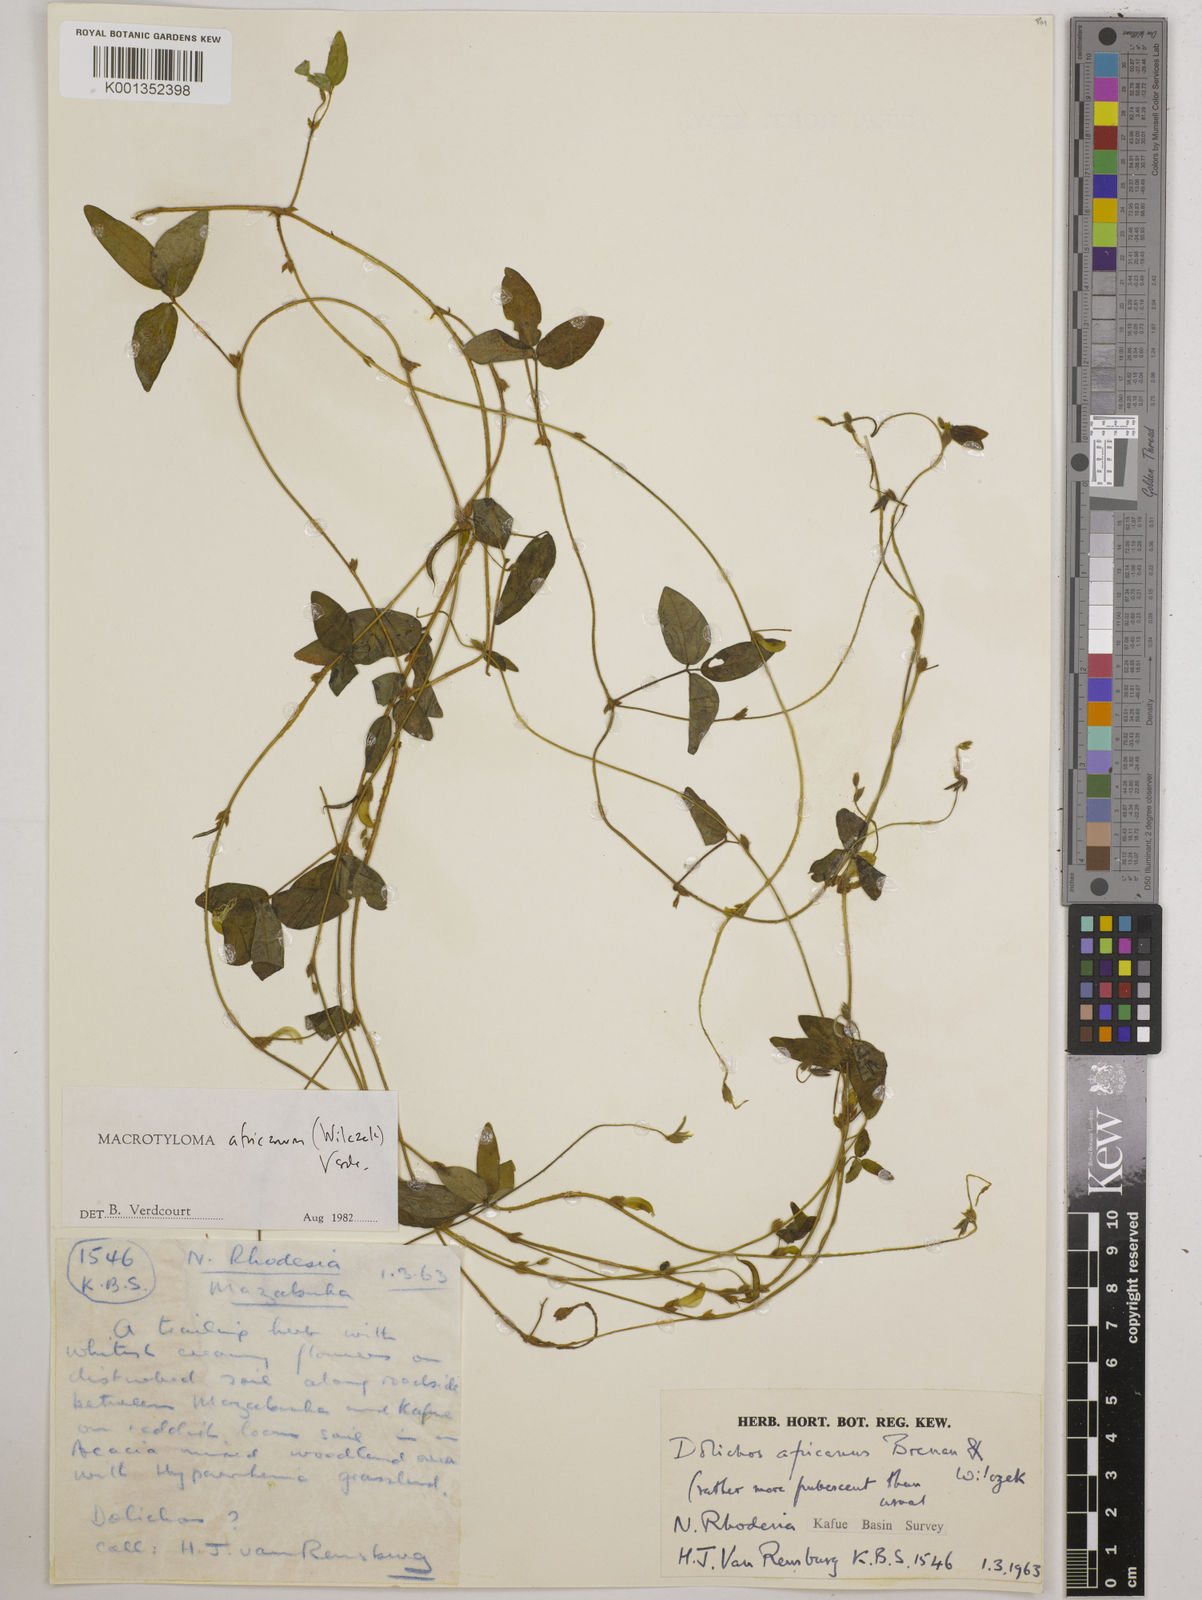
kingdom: Plantae
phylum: Tracheophyta
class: Magnoliopsida
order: Fabales
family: Fabaceae
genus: Macrotyloma
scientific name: Macrotyloma africanum
